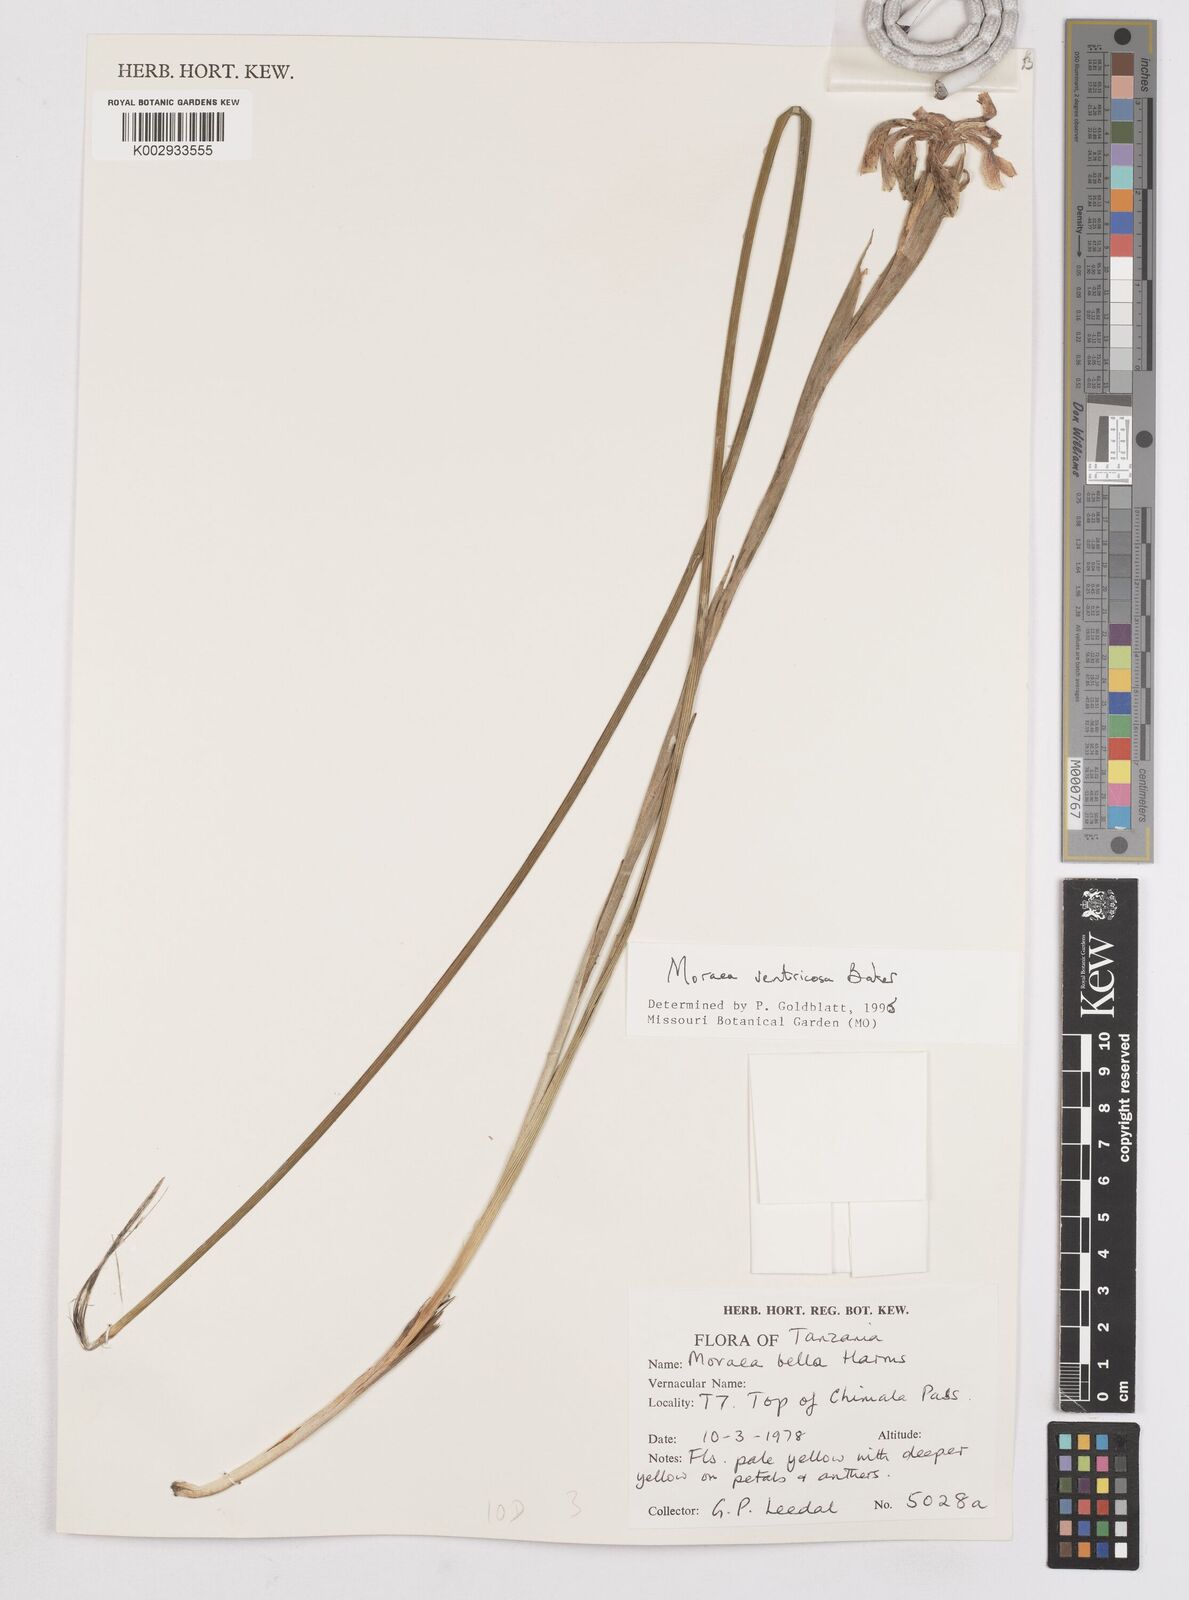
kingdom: Plantae
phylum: Tracheophyta
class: Liliopsida
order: Asparagales
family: Iridaceae
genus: Moraea
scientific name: Moraea ventricosa
